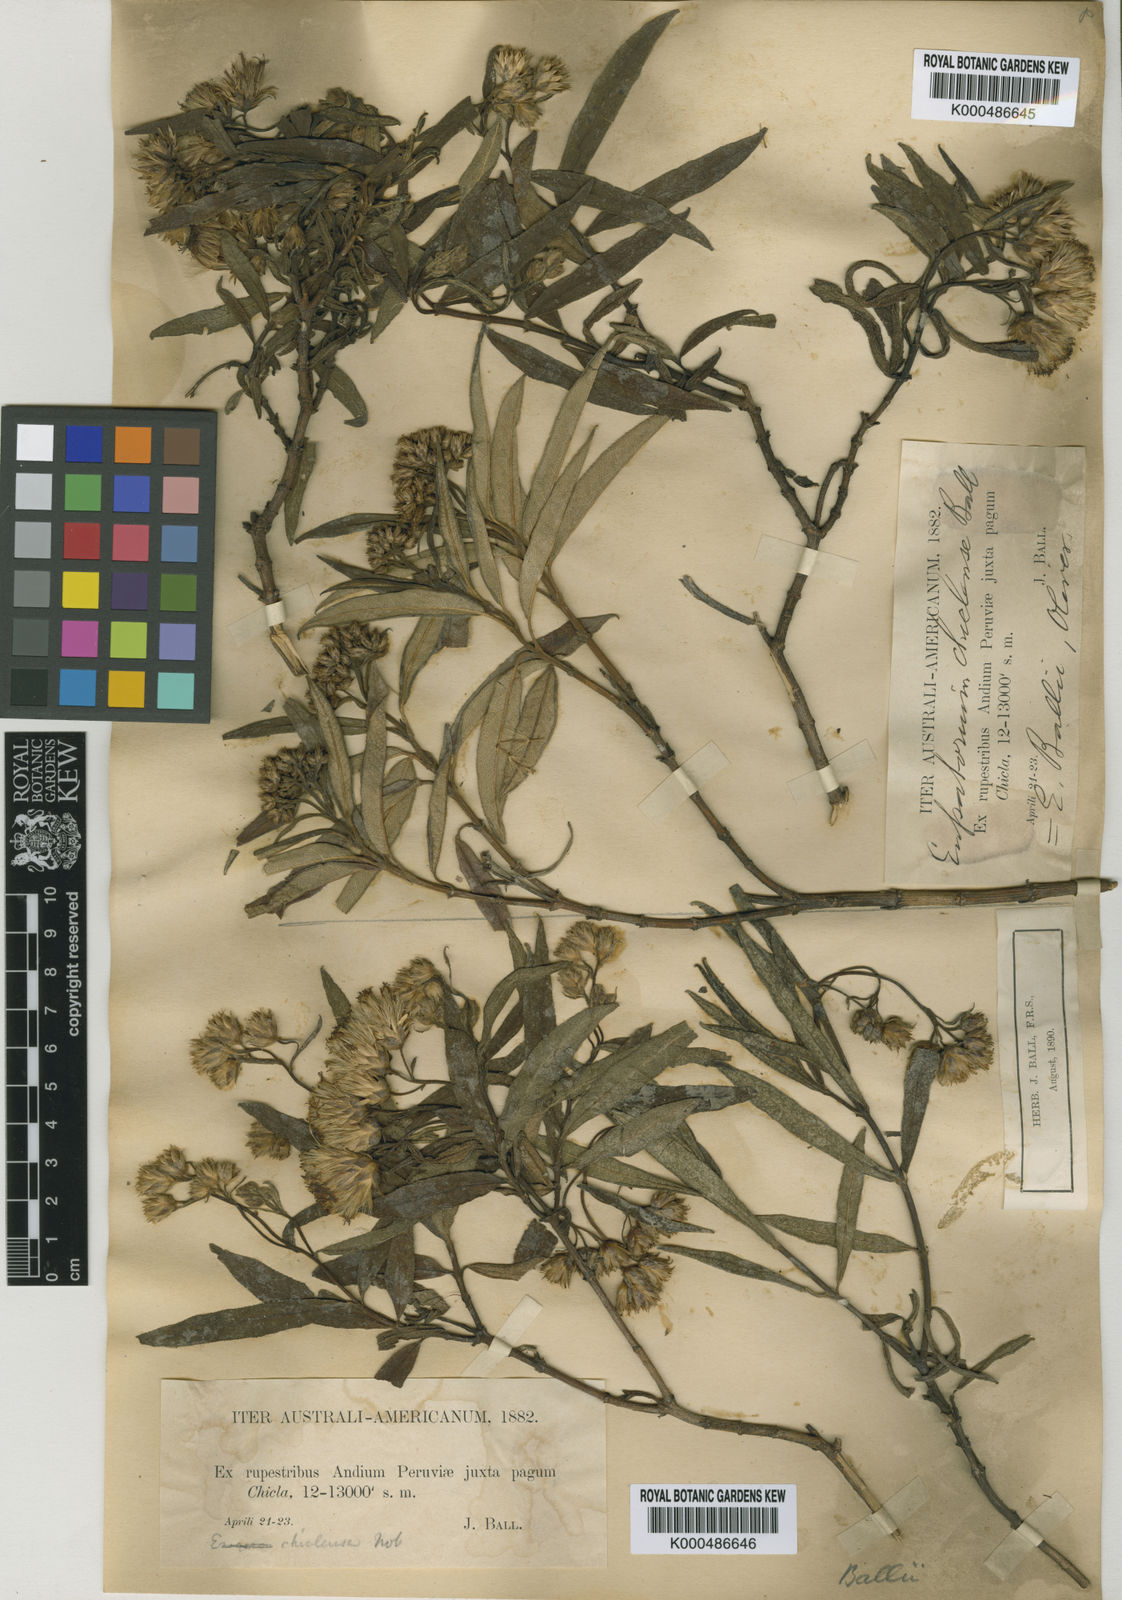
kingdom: Plantae
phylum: Tracheophyta
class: Magnoliopsida
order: Asterales
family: Asteraceae
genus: Aristeguietia
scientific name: Aristeguietia ballii
